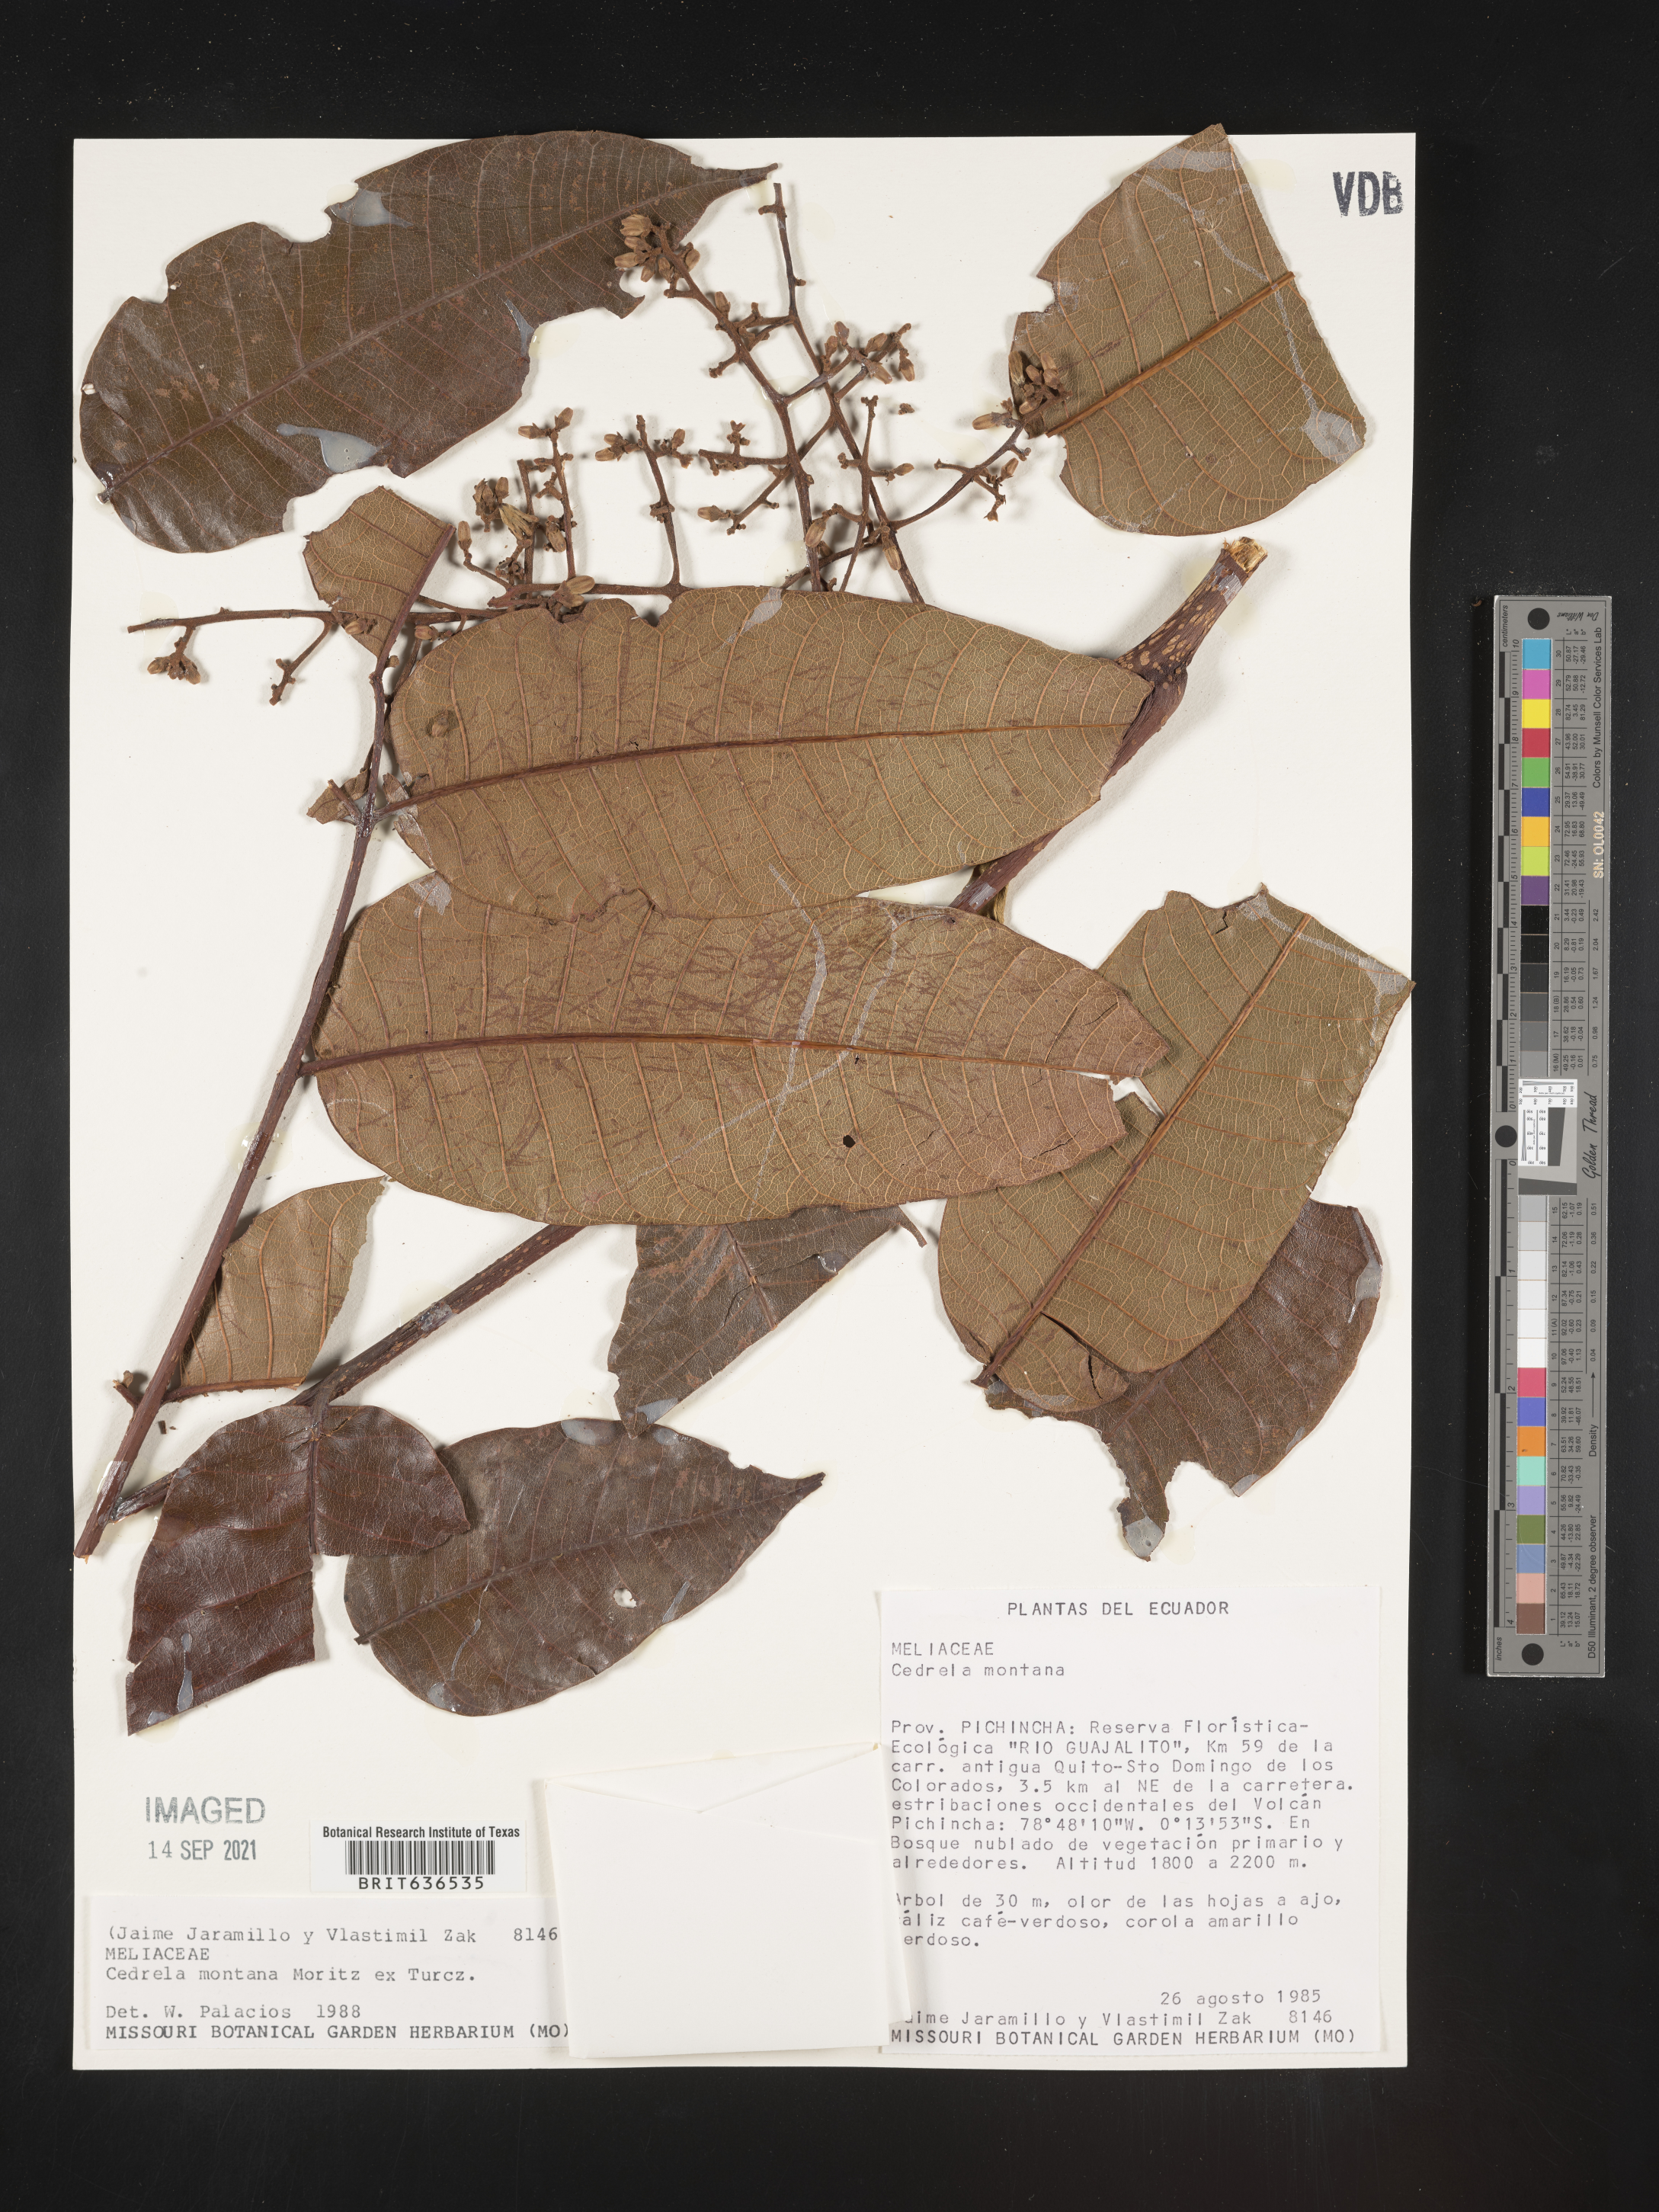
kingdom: Plantae
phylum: Tracheophyta
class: Magnoliopsida
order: Sapindales
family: Meliaceae
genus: Cedrela
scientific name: Cedrela
